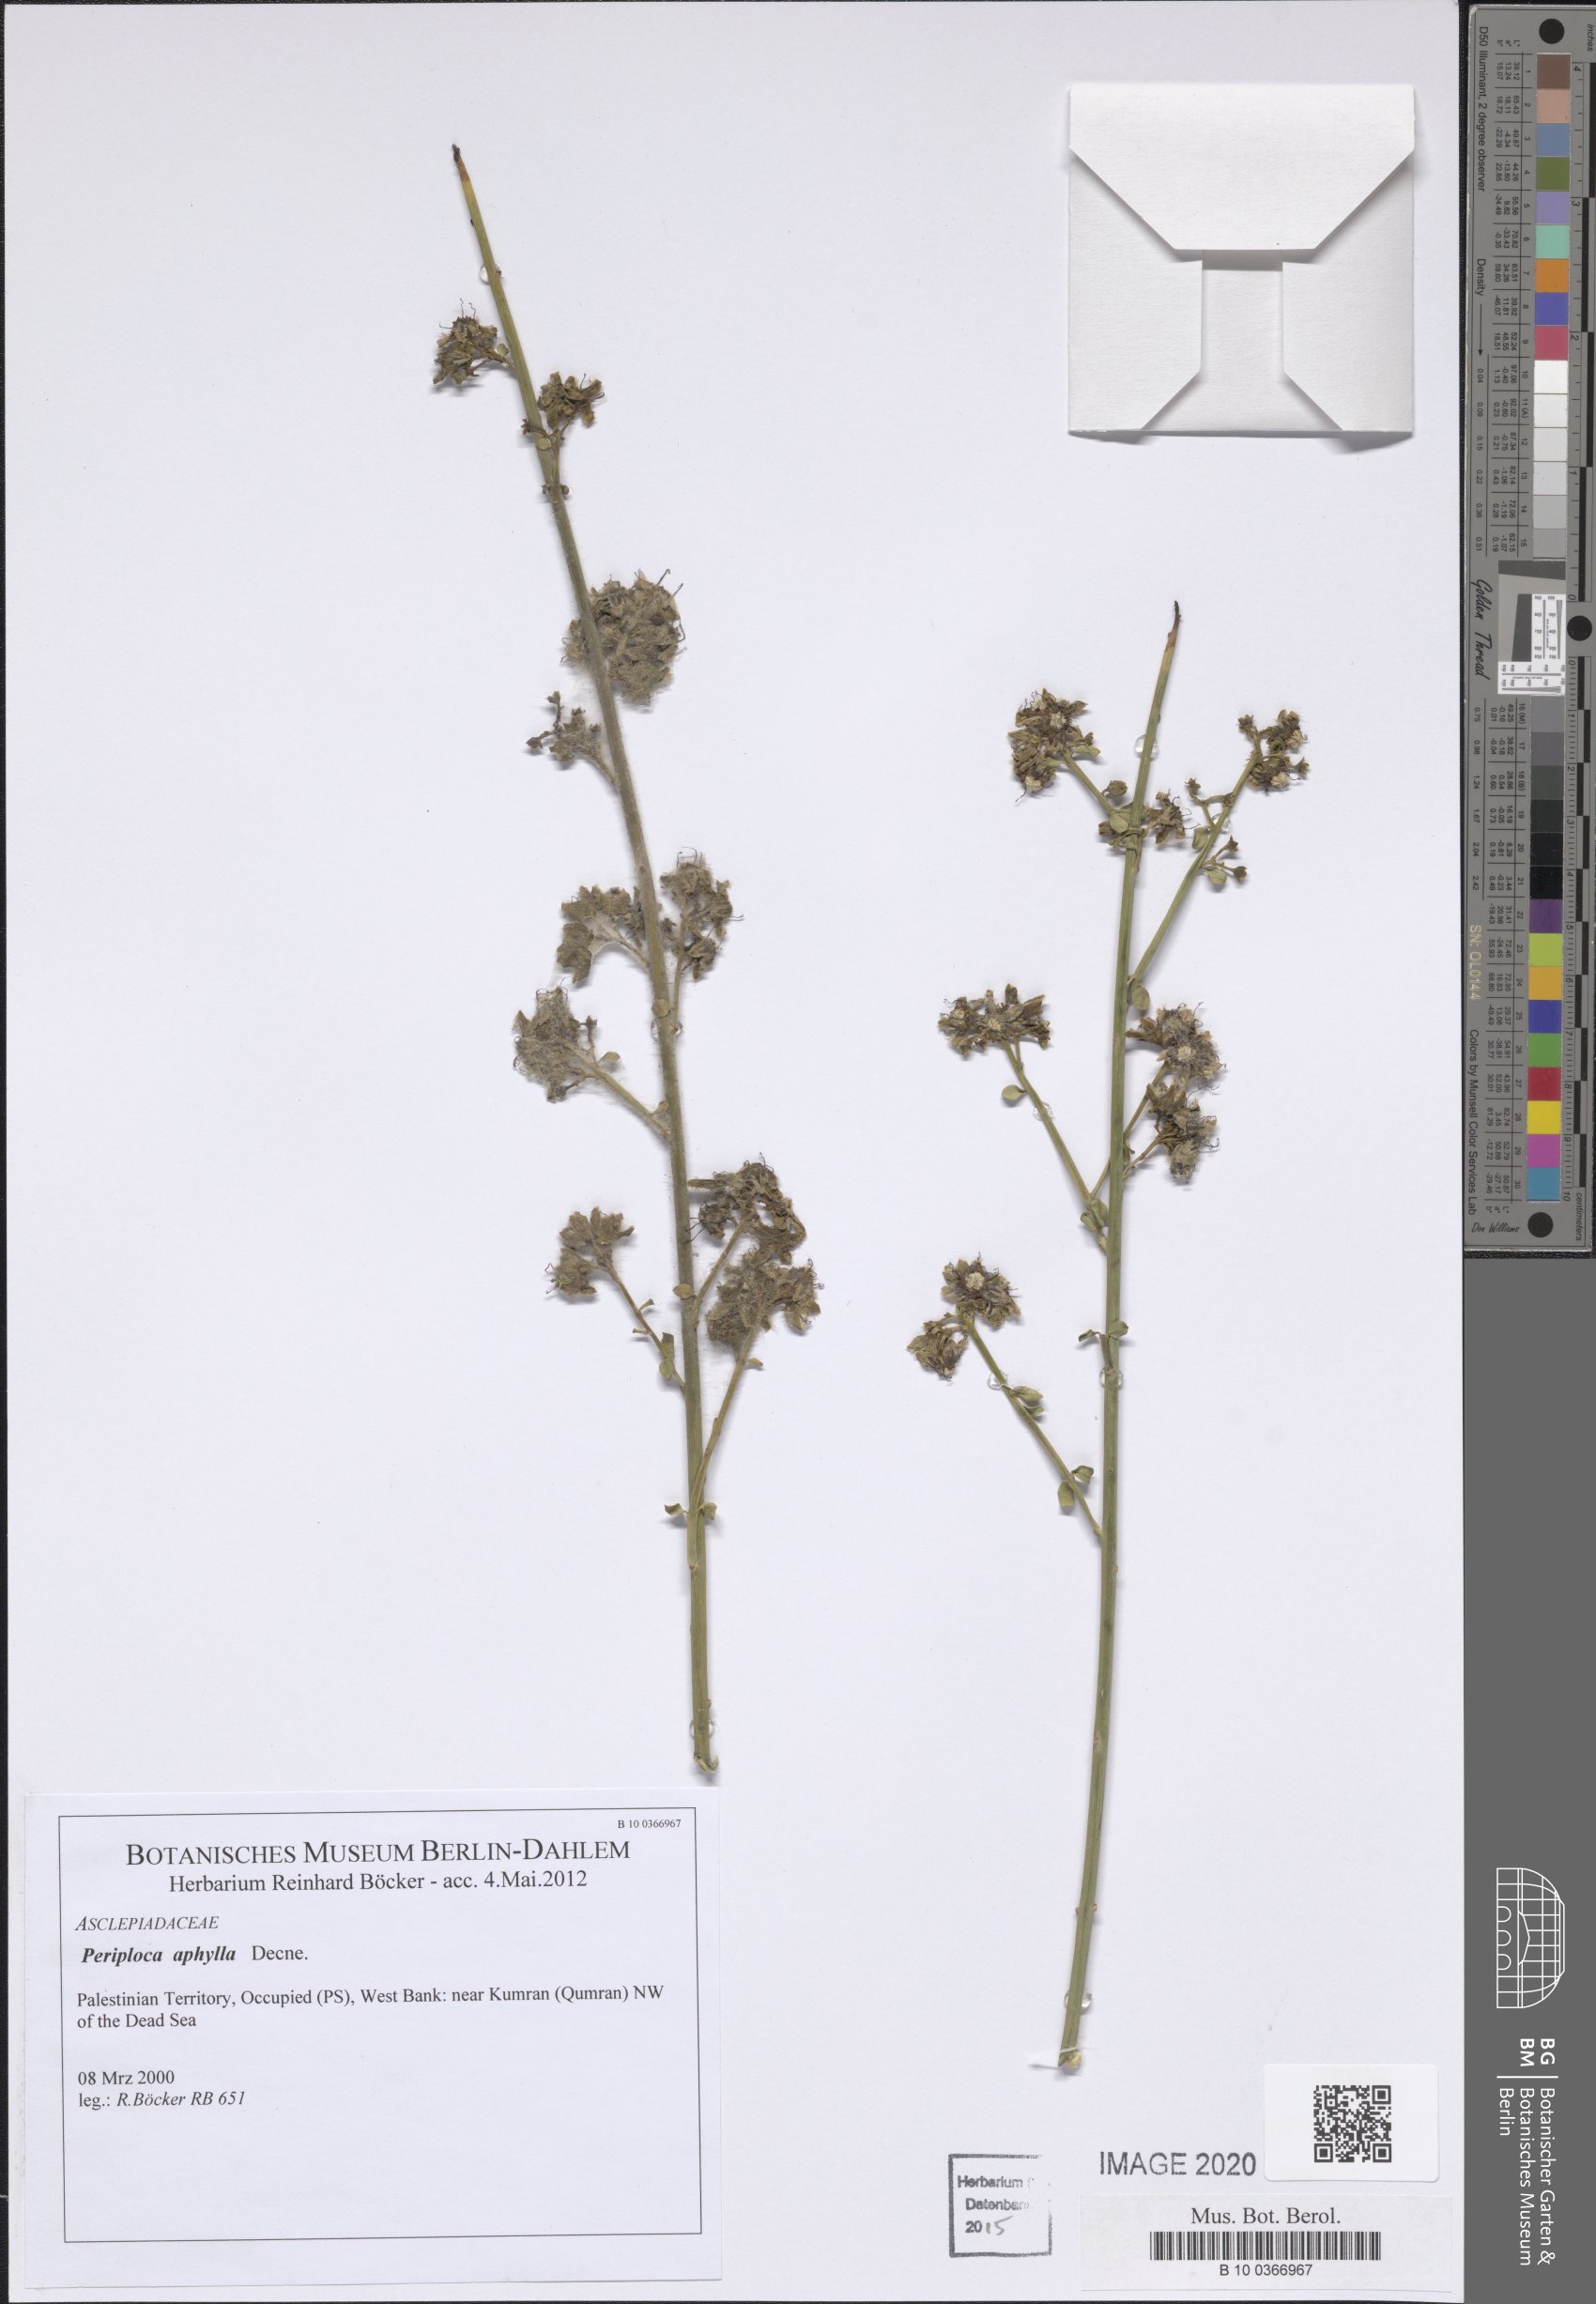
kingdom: Plantae
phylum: Tracheophyta
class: Magnoliopsida
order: Gentianales
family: Apocynaceae
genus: Periploca
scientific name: Periploca aphylla
